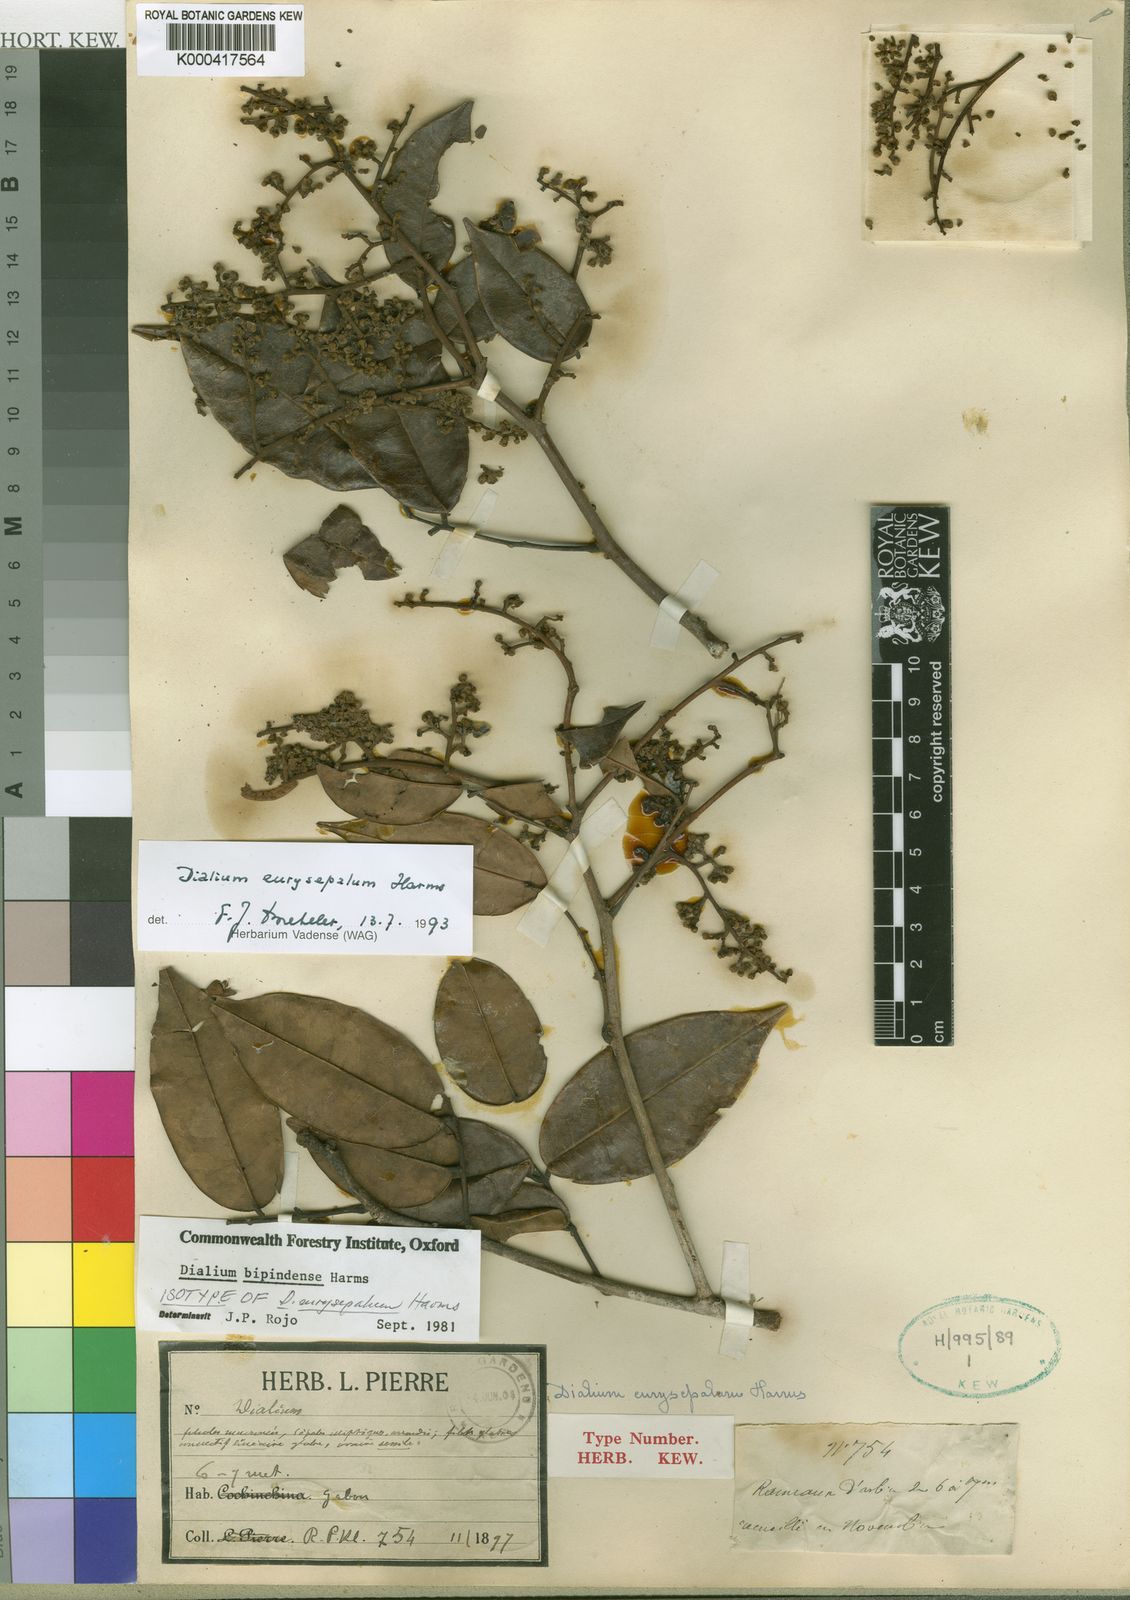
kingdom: Plantae
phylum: Tracheophyta
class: Magnoliopsida
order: Fabales
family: Fabaceae
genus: Dialium
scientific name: Dialium bipindense
